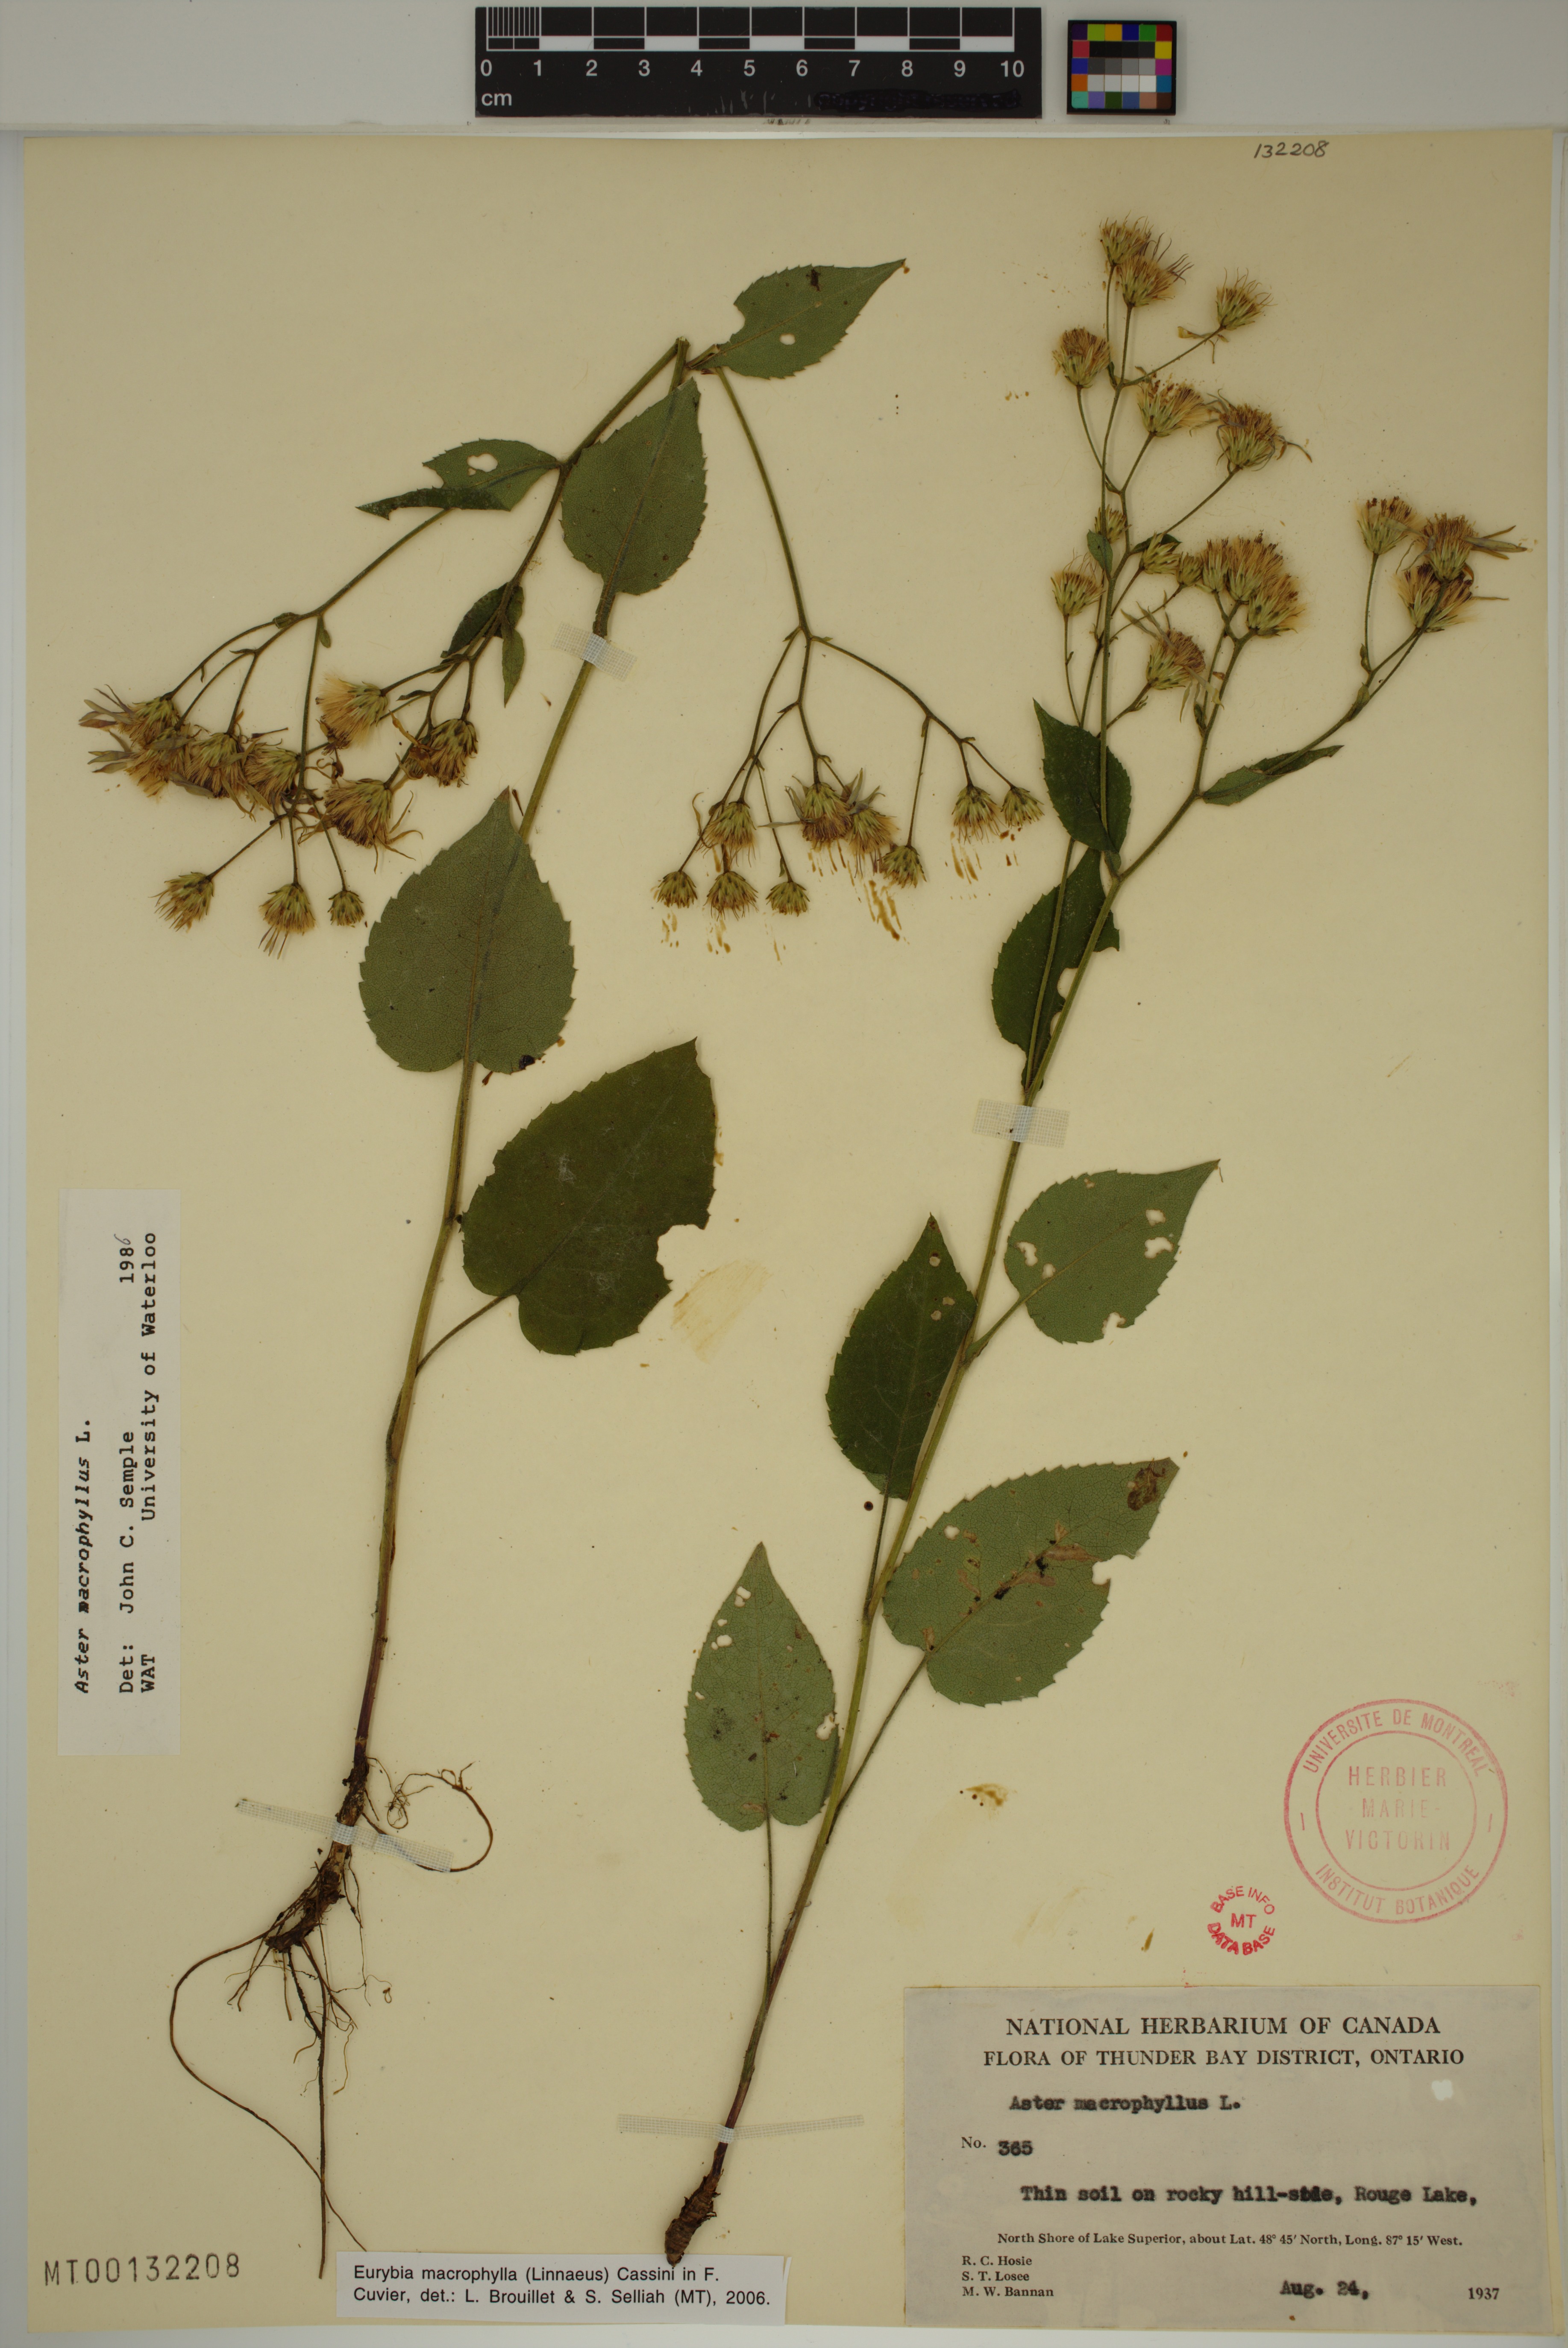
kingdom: Plantae
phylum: Tracheophyta
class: Magnoliopsida
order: Asterales
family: Asteraceae
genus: Eurybia
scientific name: Eurybia macrophylla
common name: Big-leaved aster
